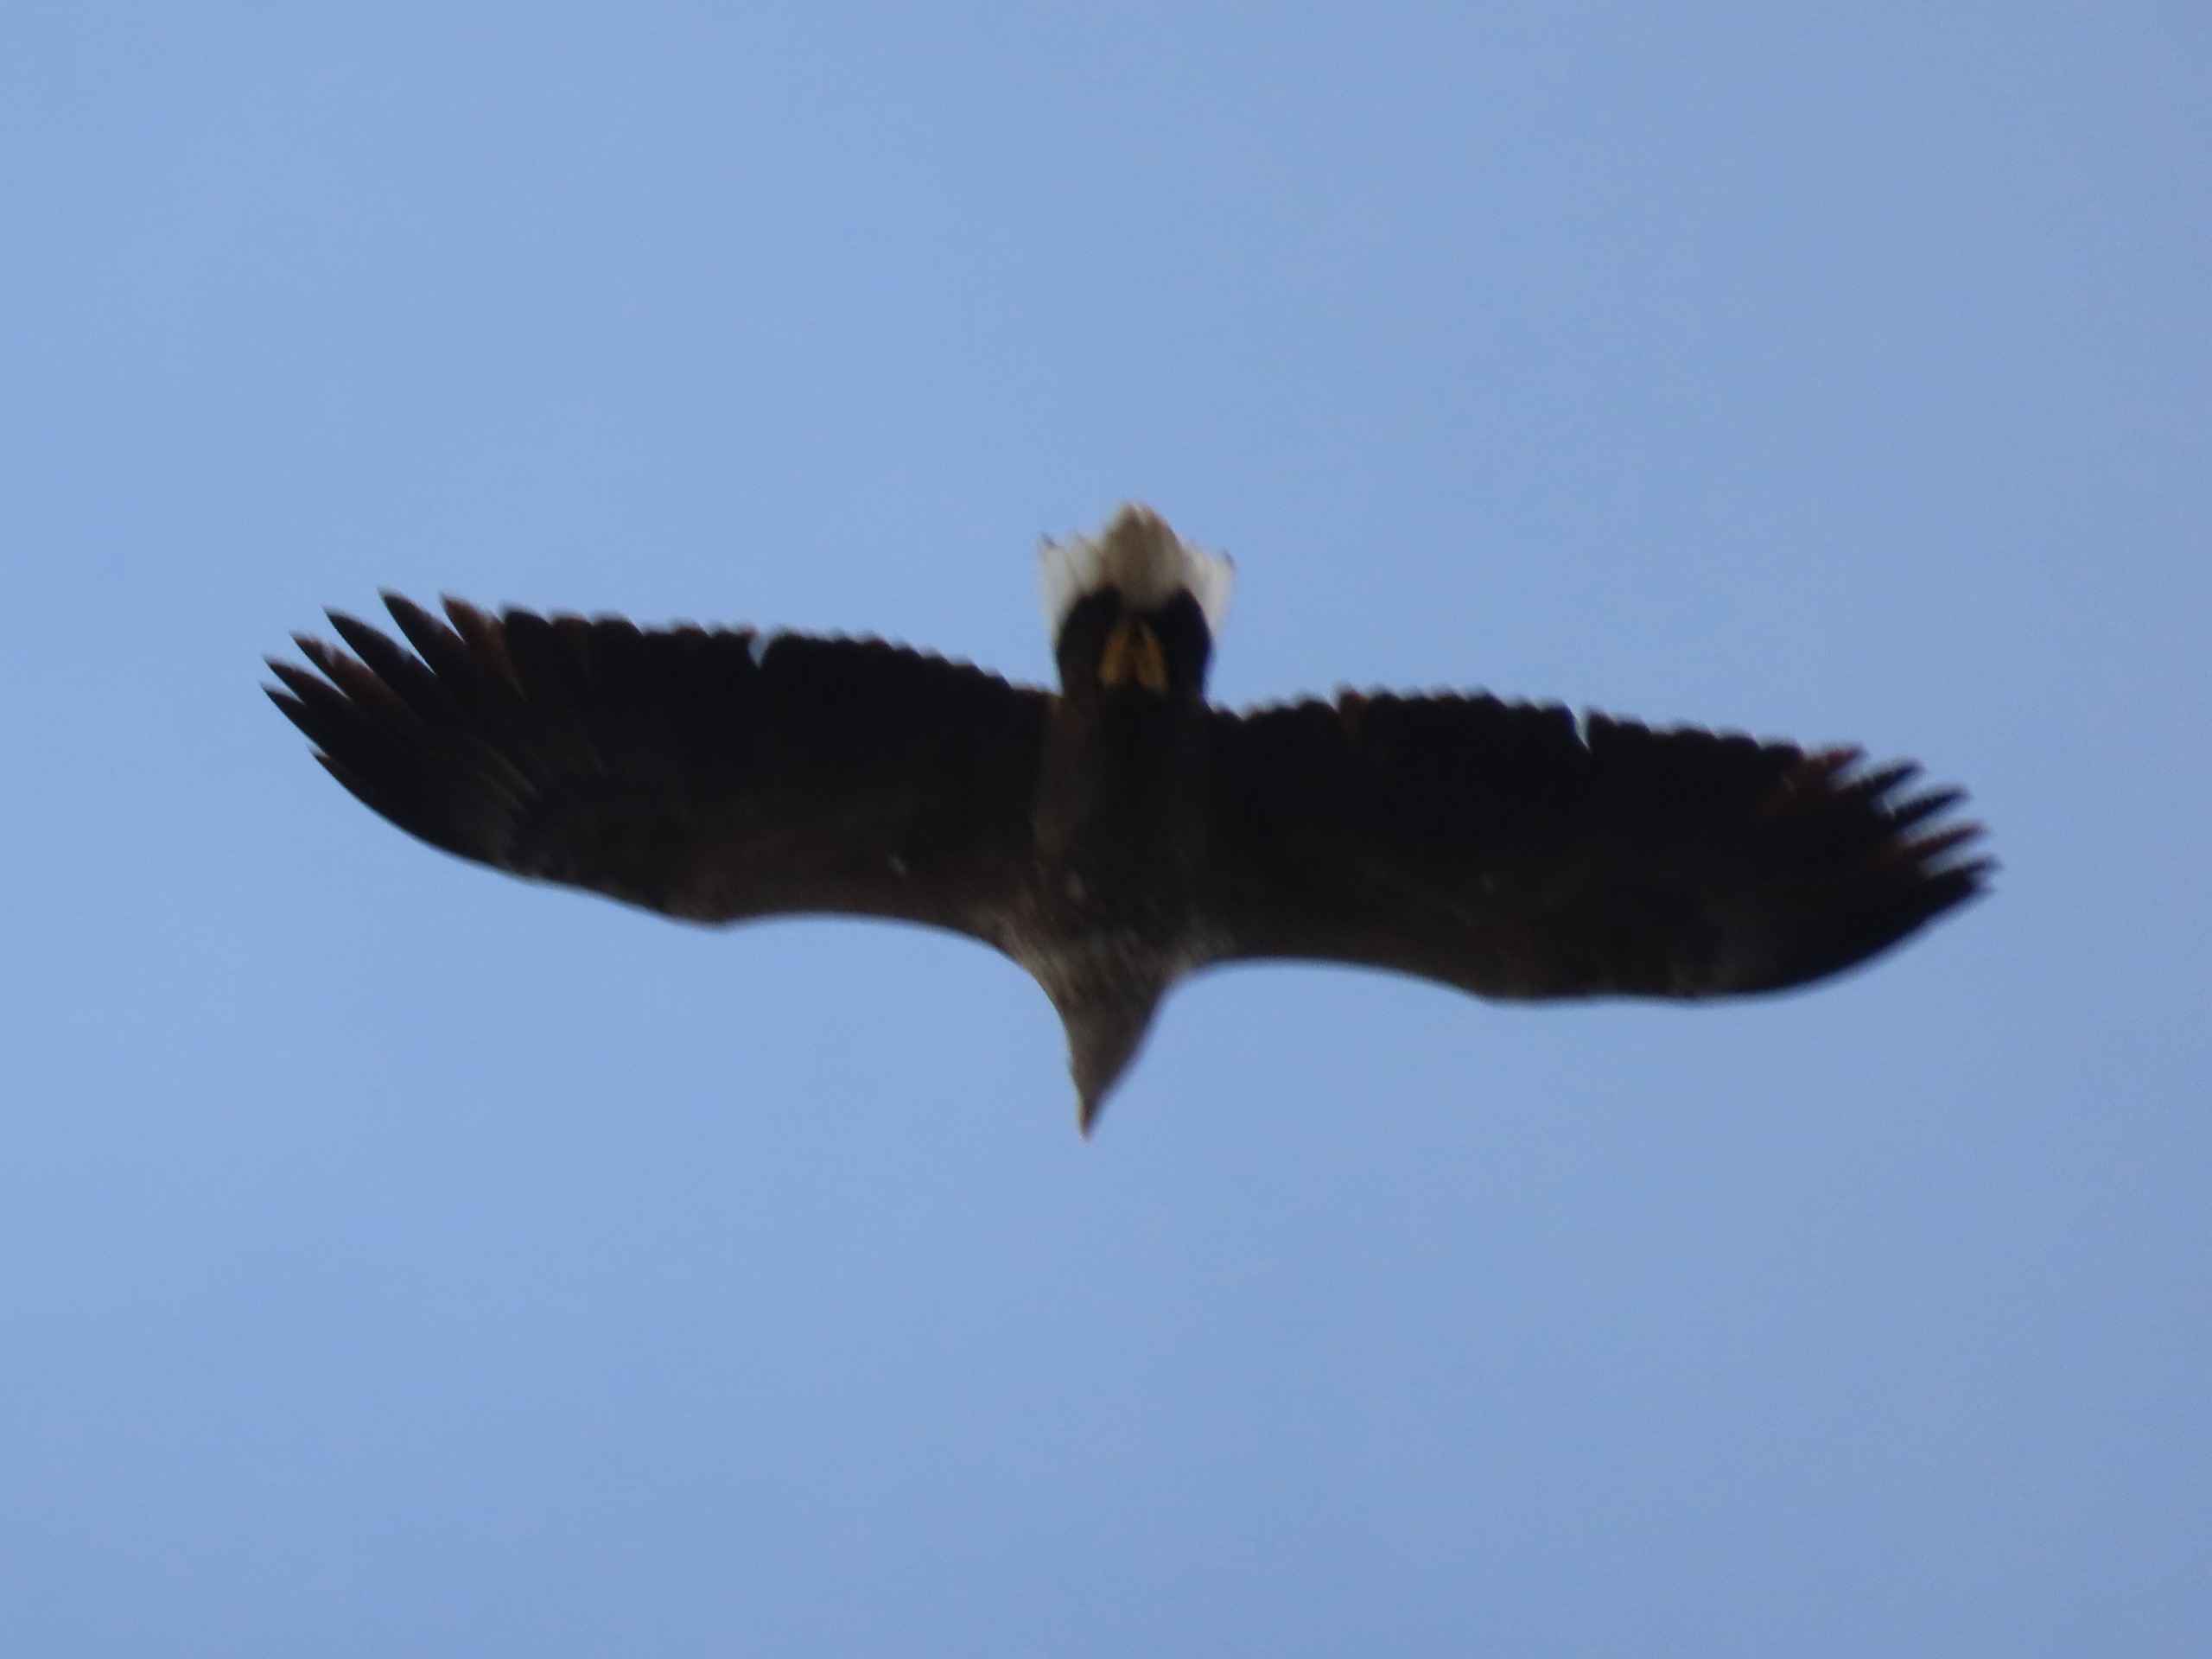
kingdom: Animalia
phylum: Chordata
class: Aves
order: Accipitriformes
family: Accipitridae
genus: Haliaeetus
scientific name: Haliaeetus albicilla
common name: Havørn
